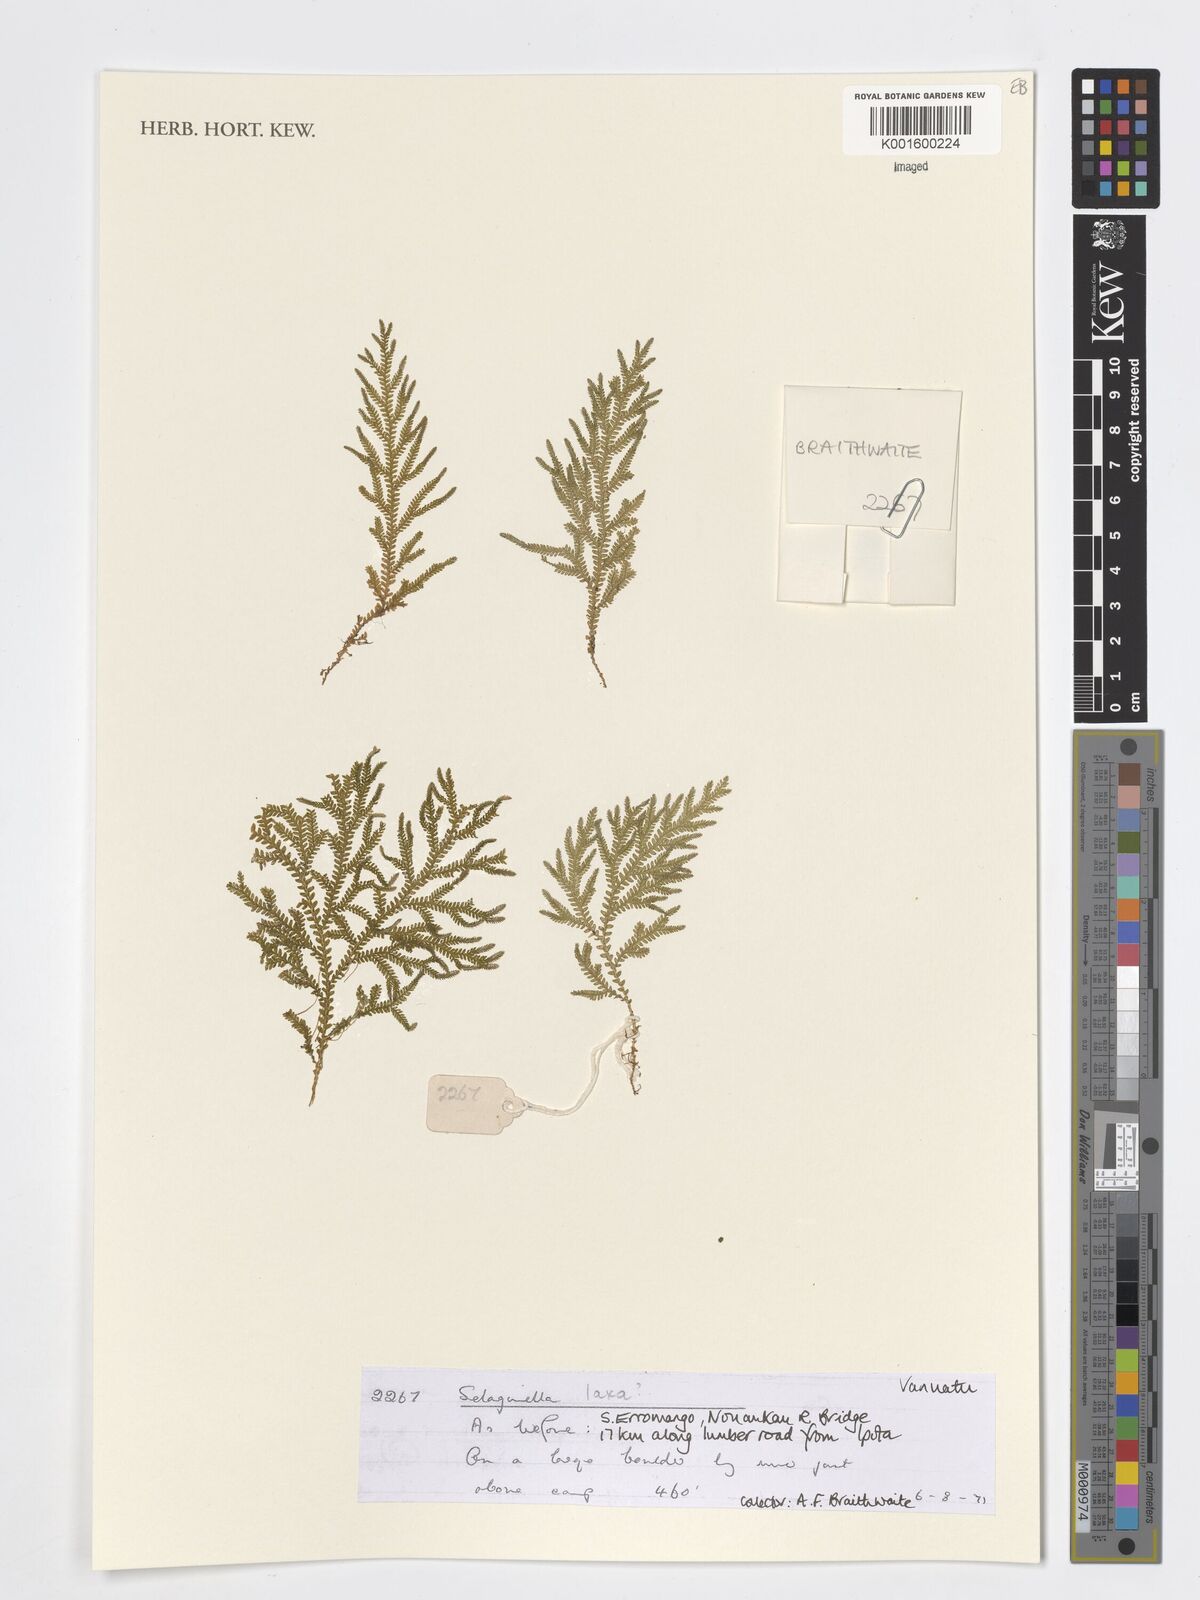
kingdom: Plantae
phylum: Tracheophyta
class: Lycopodiopsida
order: Selaginellales
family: Selaginellaceae
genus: Selaginella
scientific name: Selaginella
